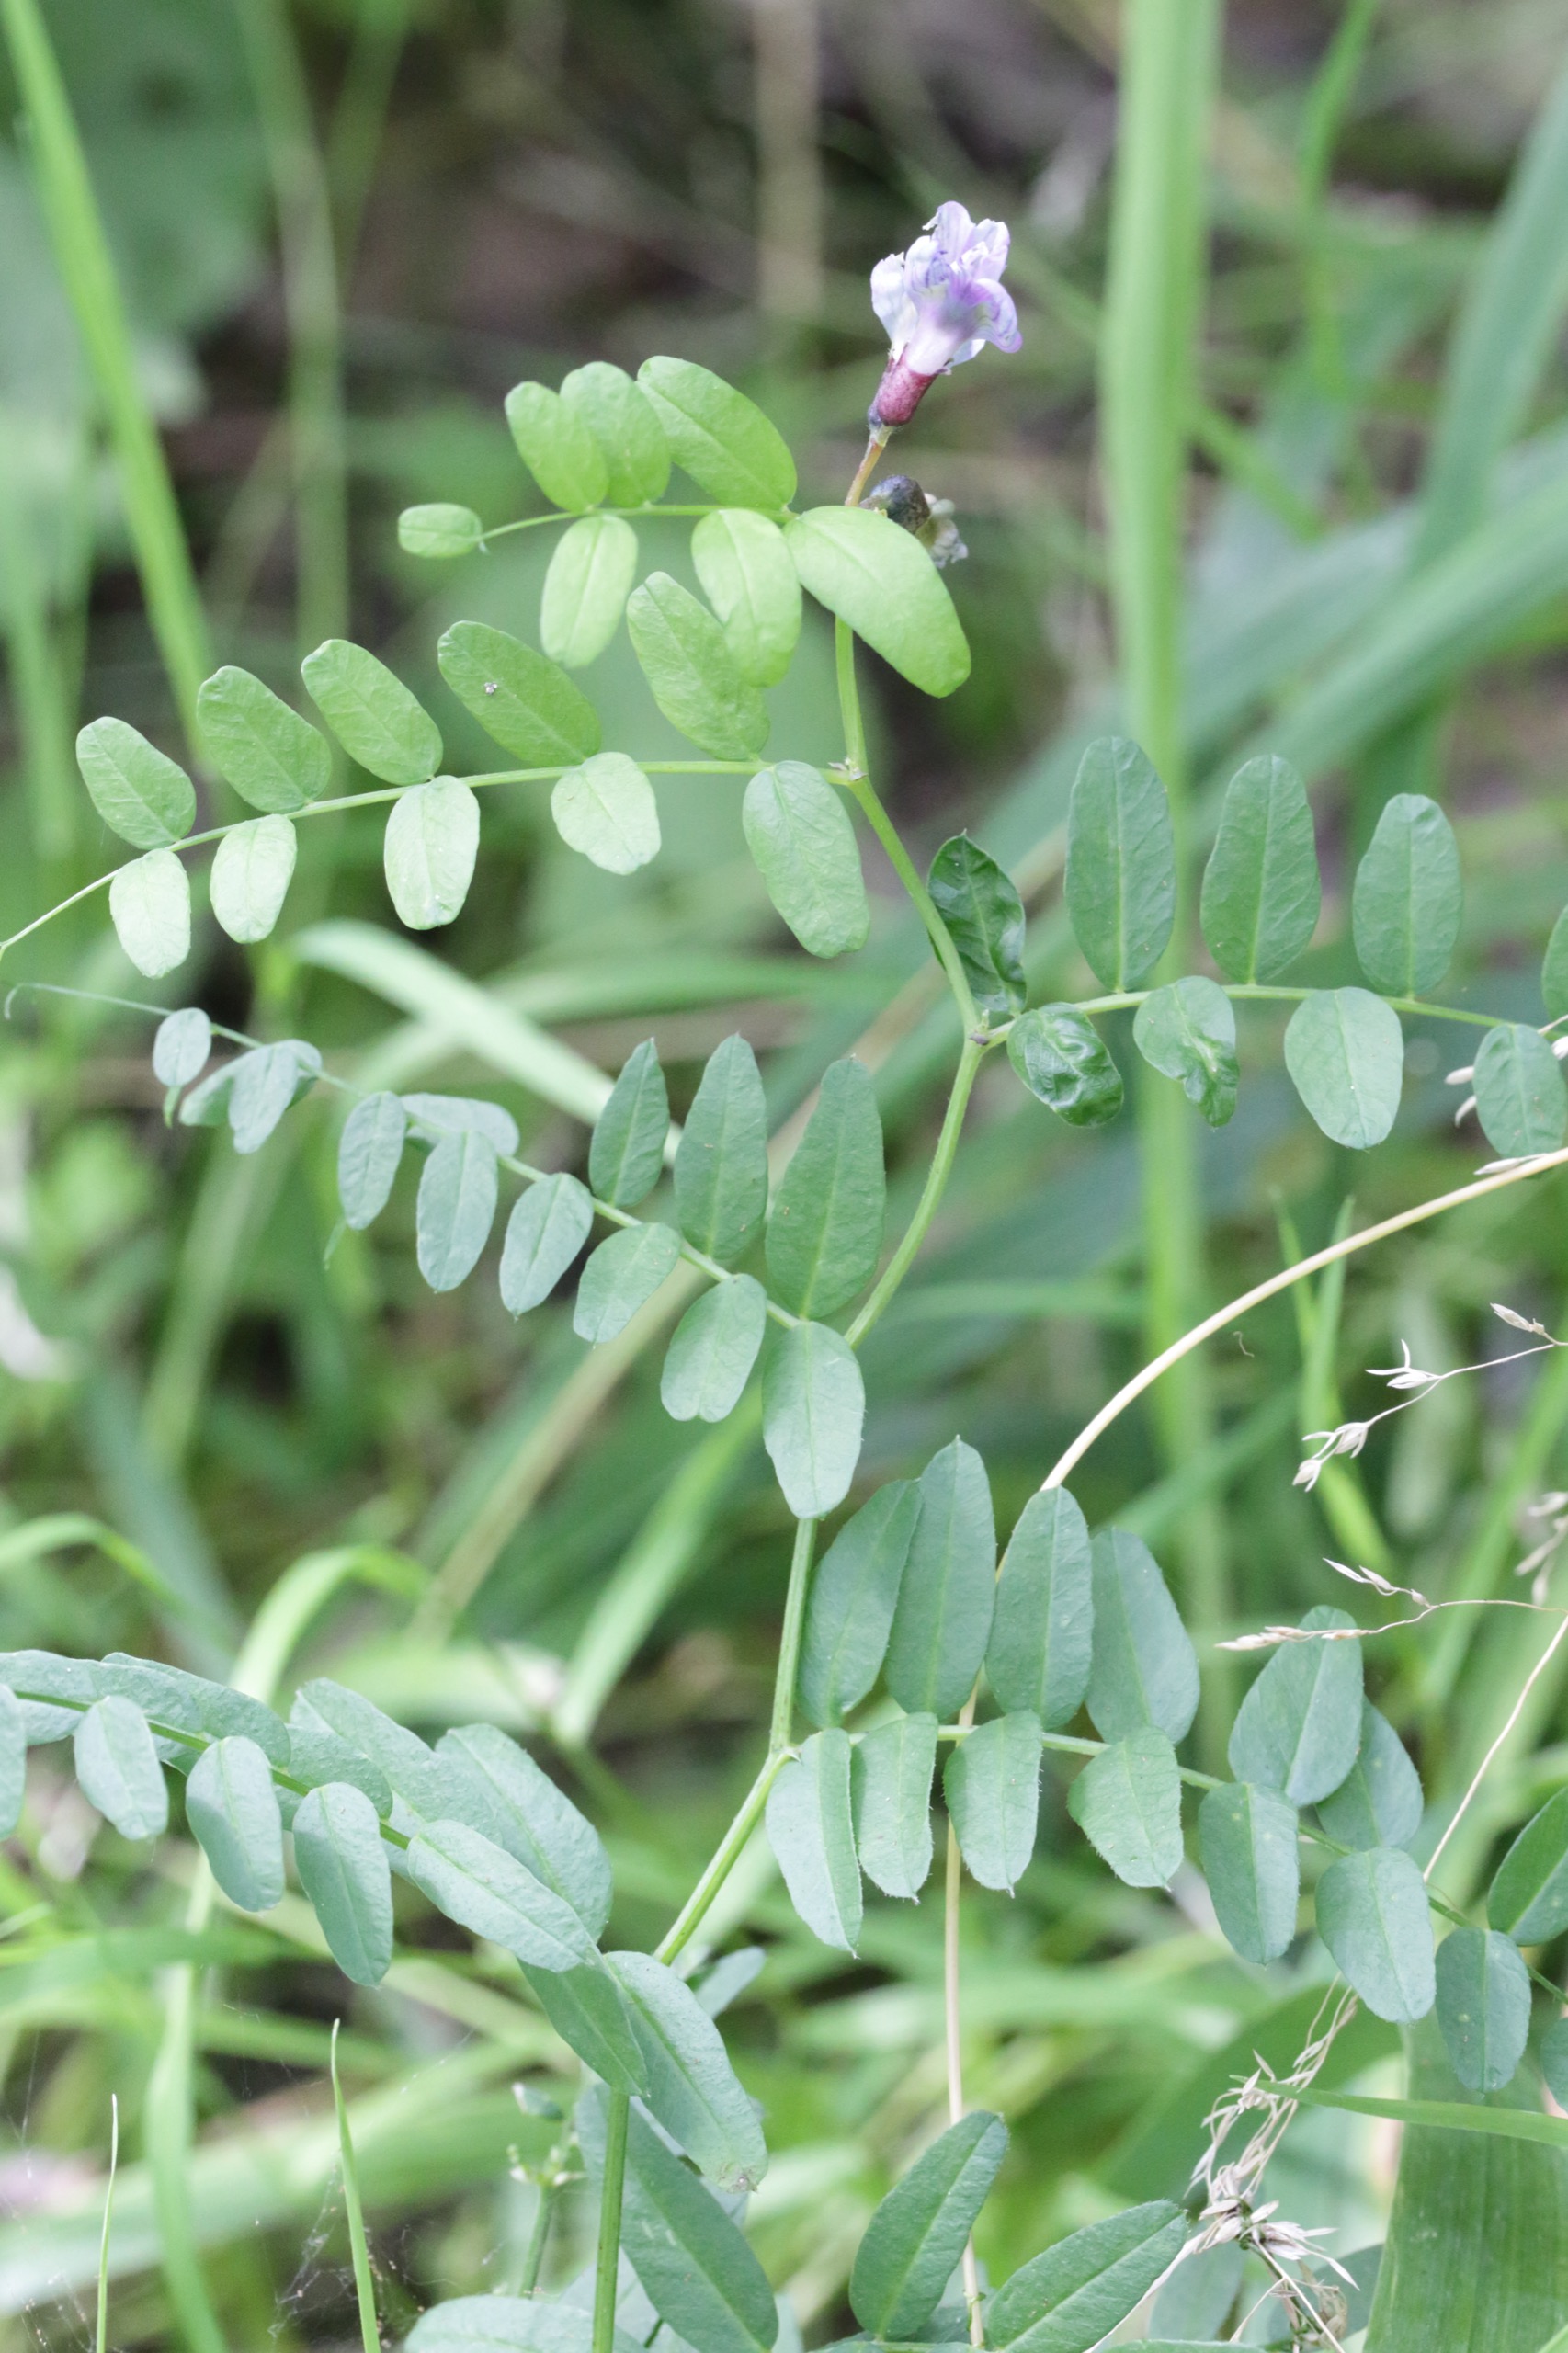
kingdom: Plantae
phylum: Tracheophyta
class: Magnoliopsida
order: Fabales
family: Fabaceae
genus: Vicia
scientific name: Vicia sepium
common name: Gærde-vikke
